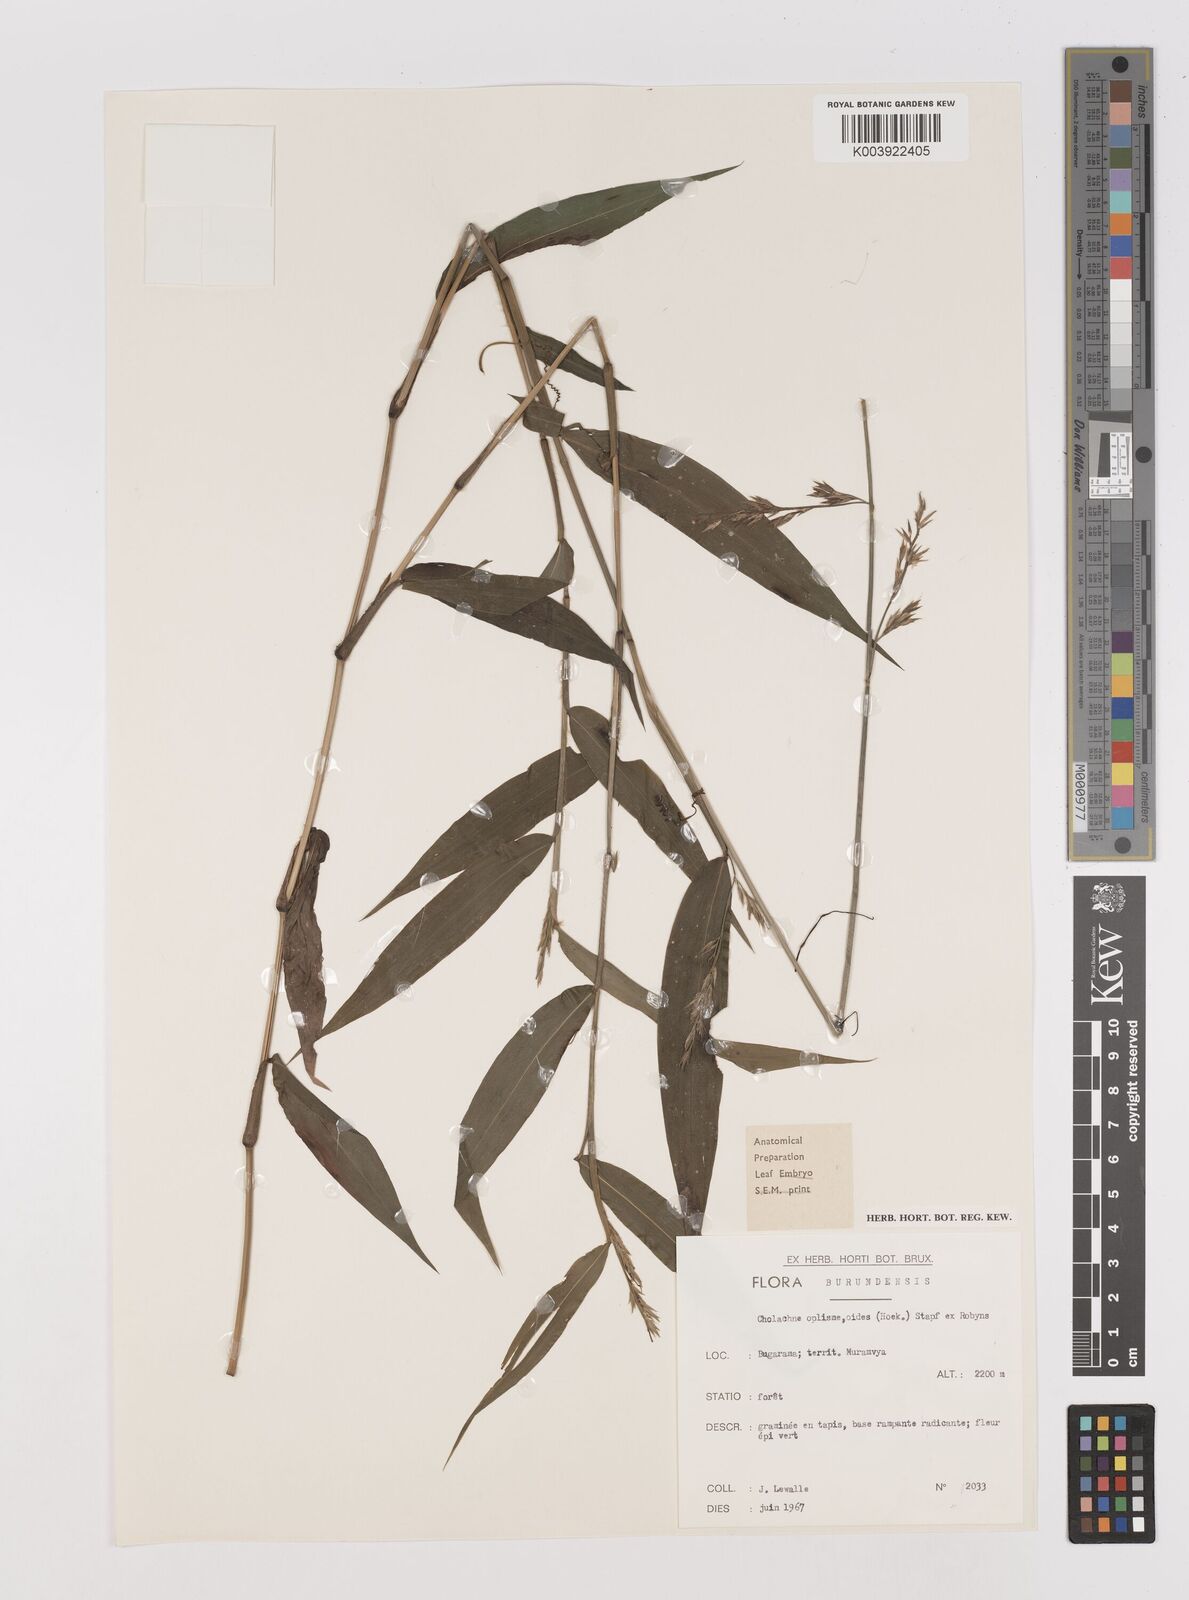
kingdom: Plantae
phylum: Tracheophyta
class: Liliopsida
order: Poales
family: Poaceae
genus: Poecilostachys
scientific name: Poecilostachys oplismenoides
